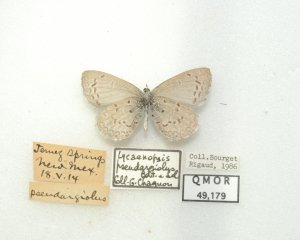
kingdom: Animalia
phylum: Arthropoda
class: Insecta
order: Lepidoptera
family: Lycaenidae
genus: Celastrina
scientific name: Celastrina ladon
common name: Spring Azure
